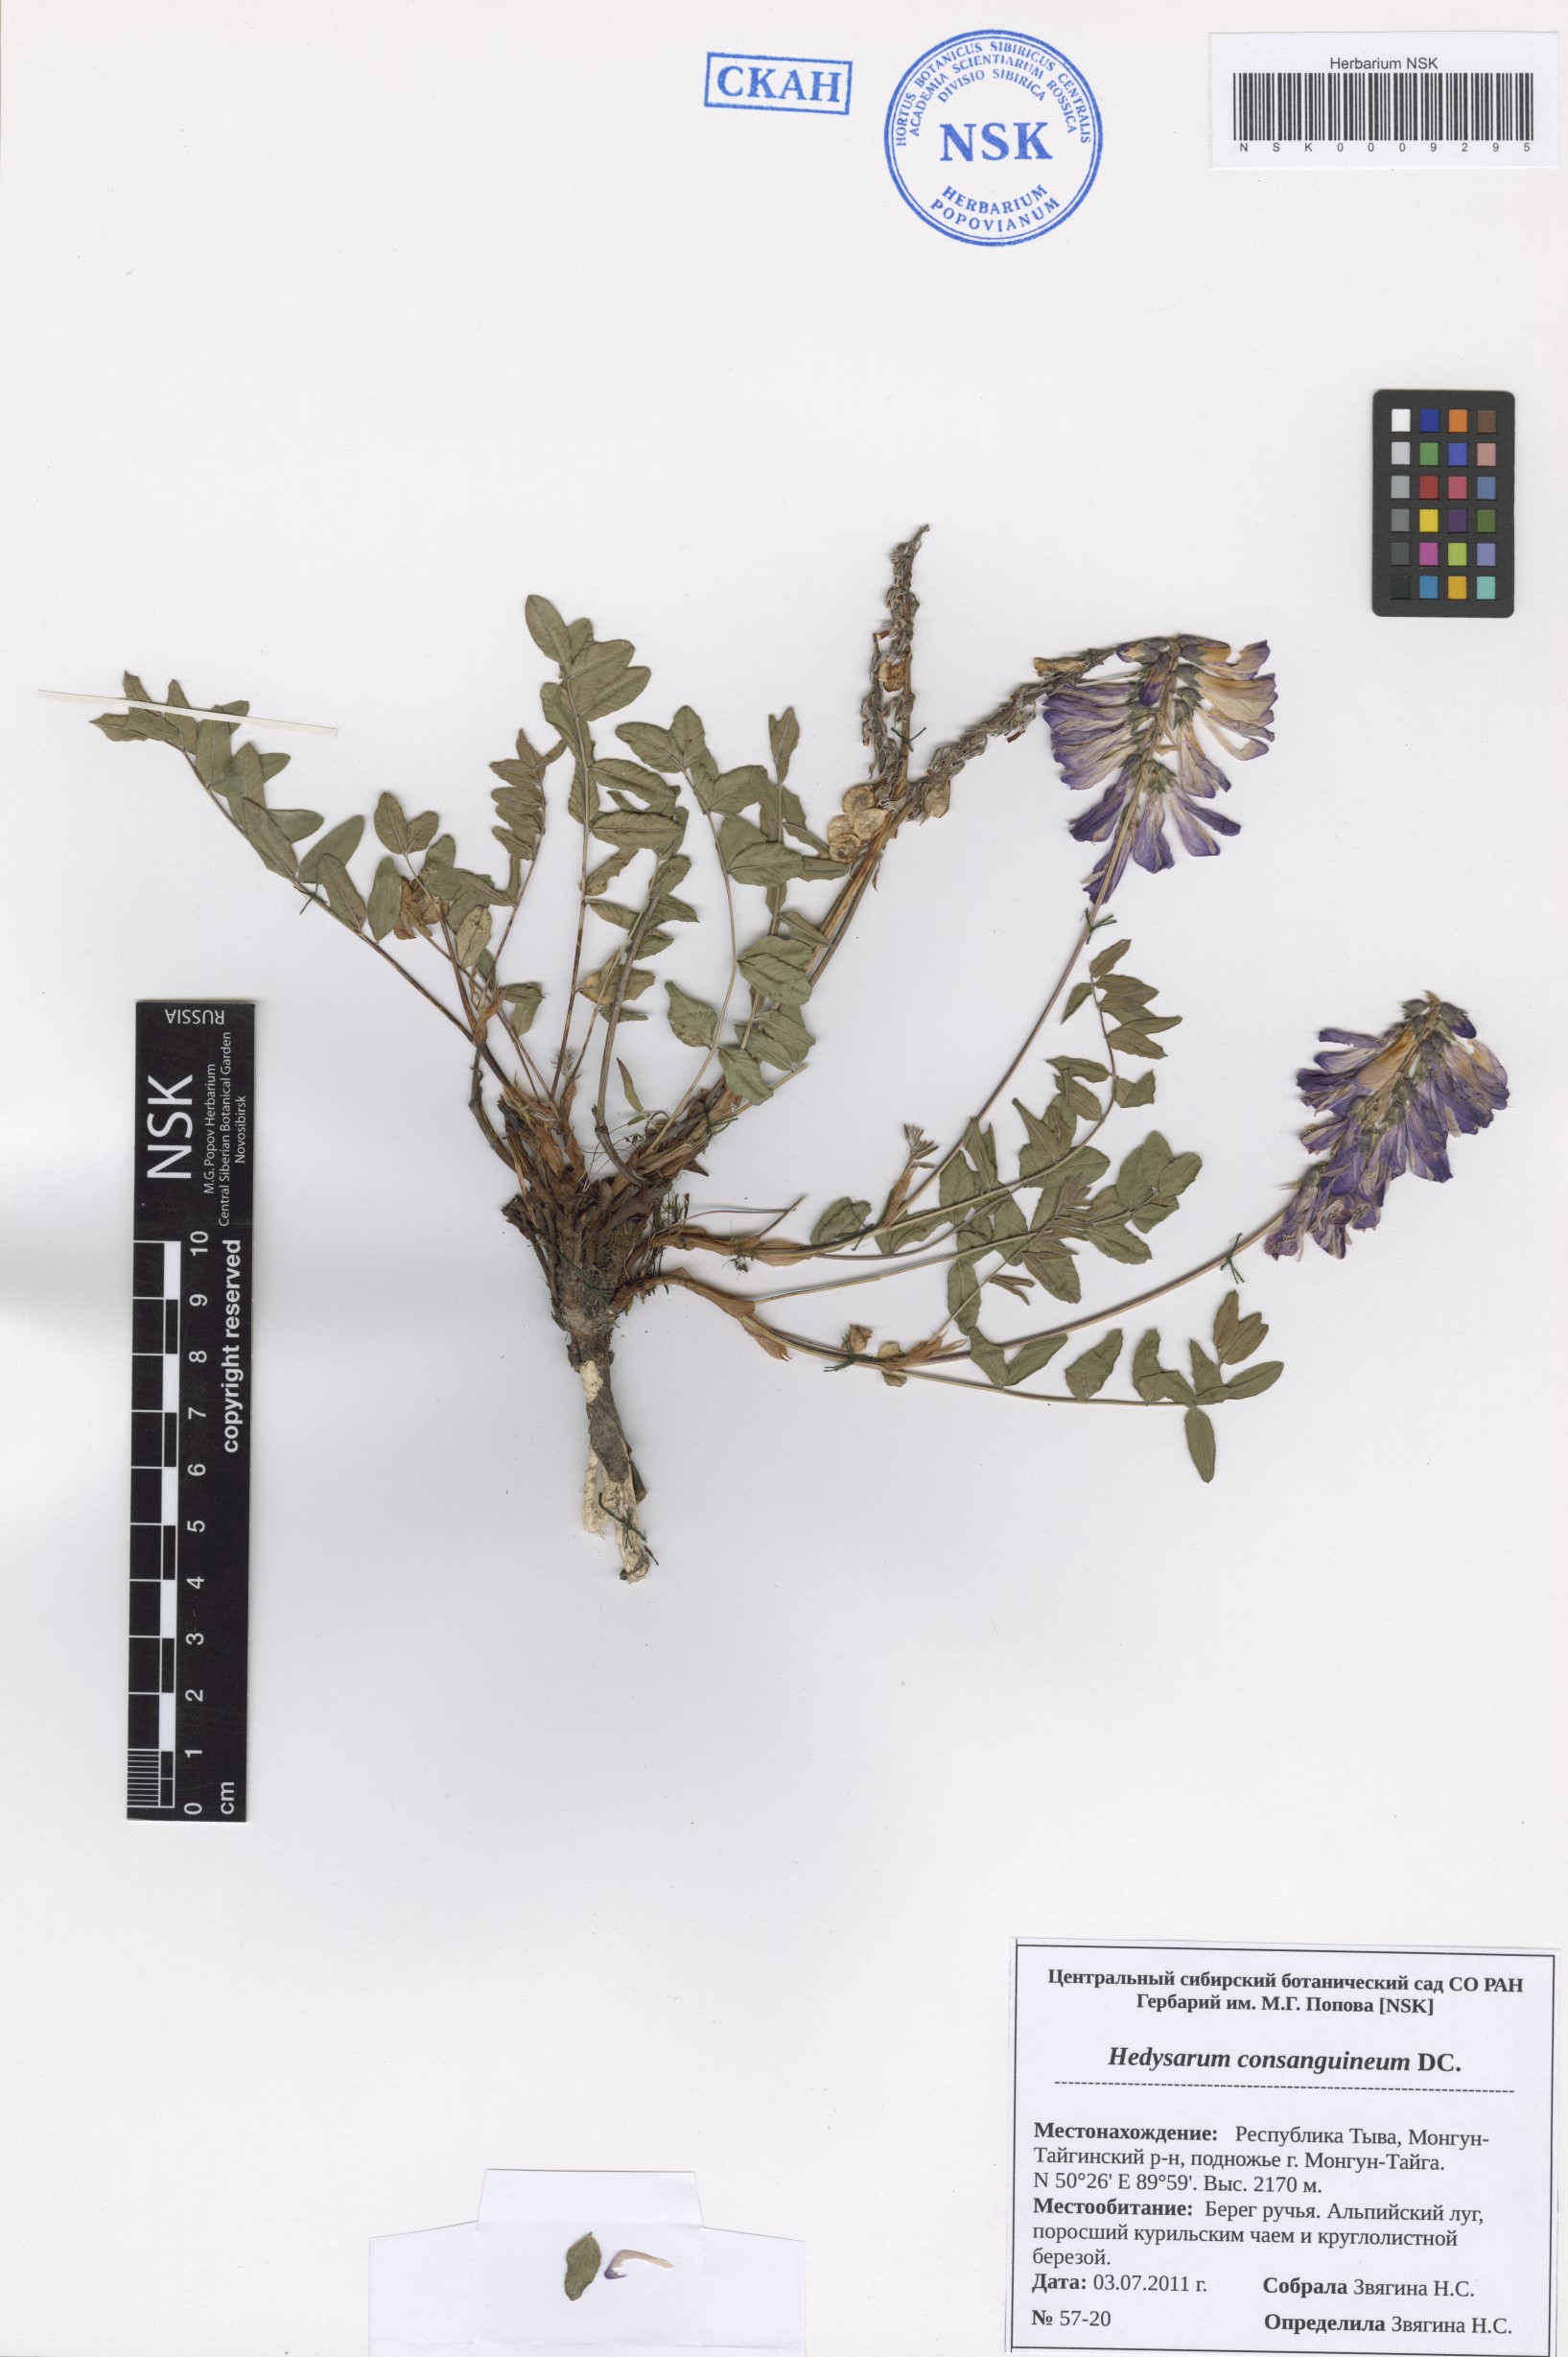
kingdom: Plantae
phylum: Tracheophyta
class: Magnoliopsida
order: Fabales
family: Fabaceae
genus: Hedysarum
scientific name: Hedysarum consanguineum
